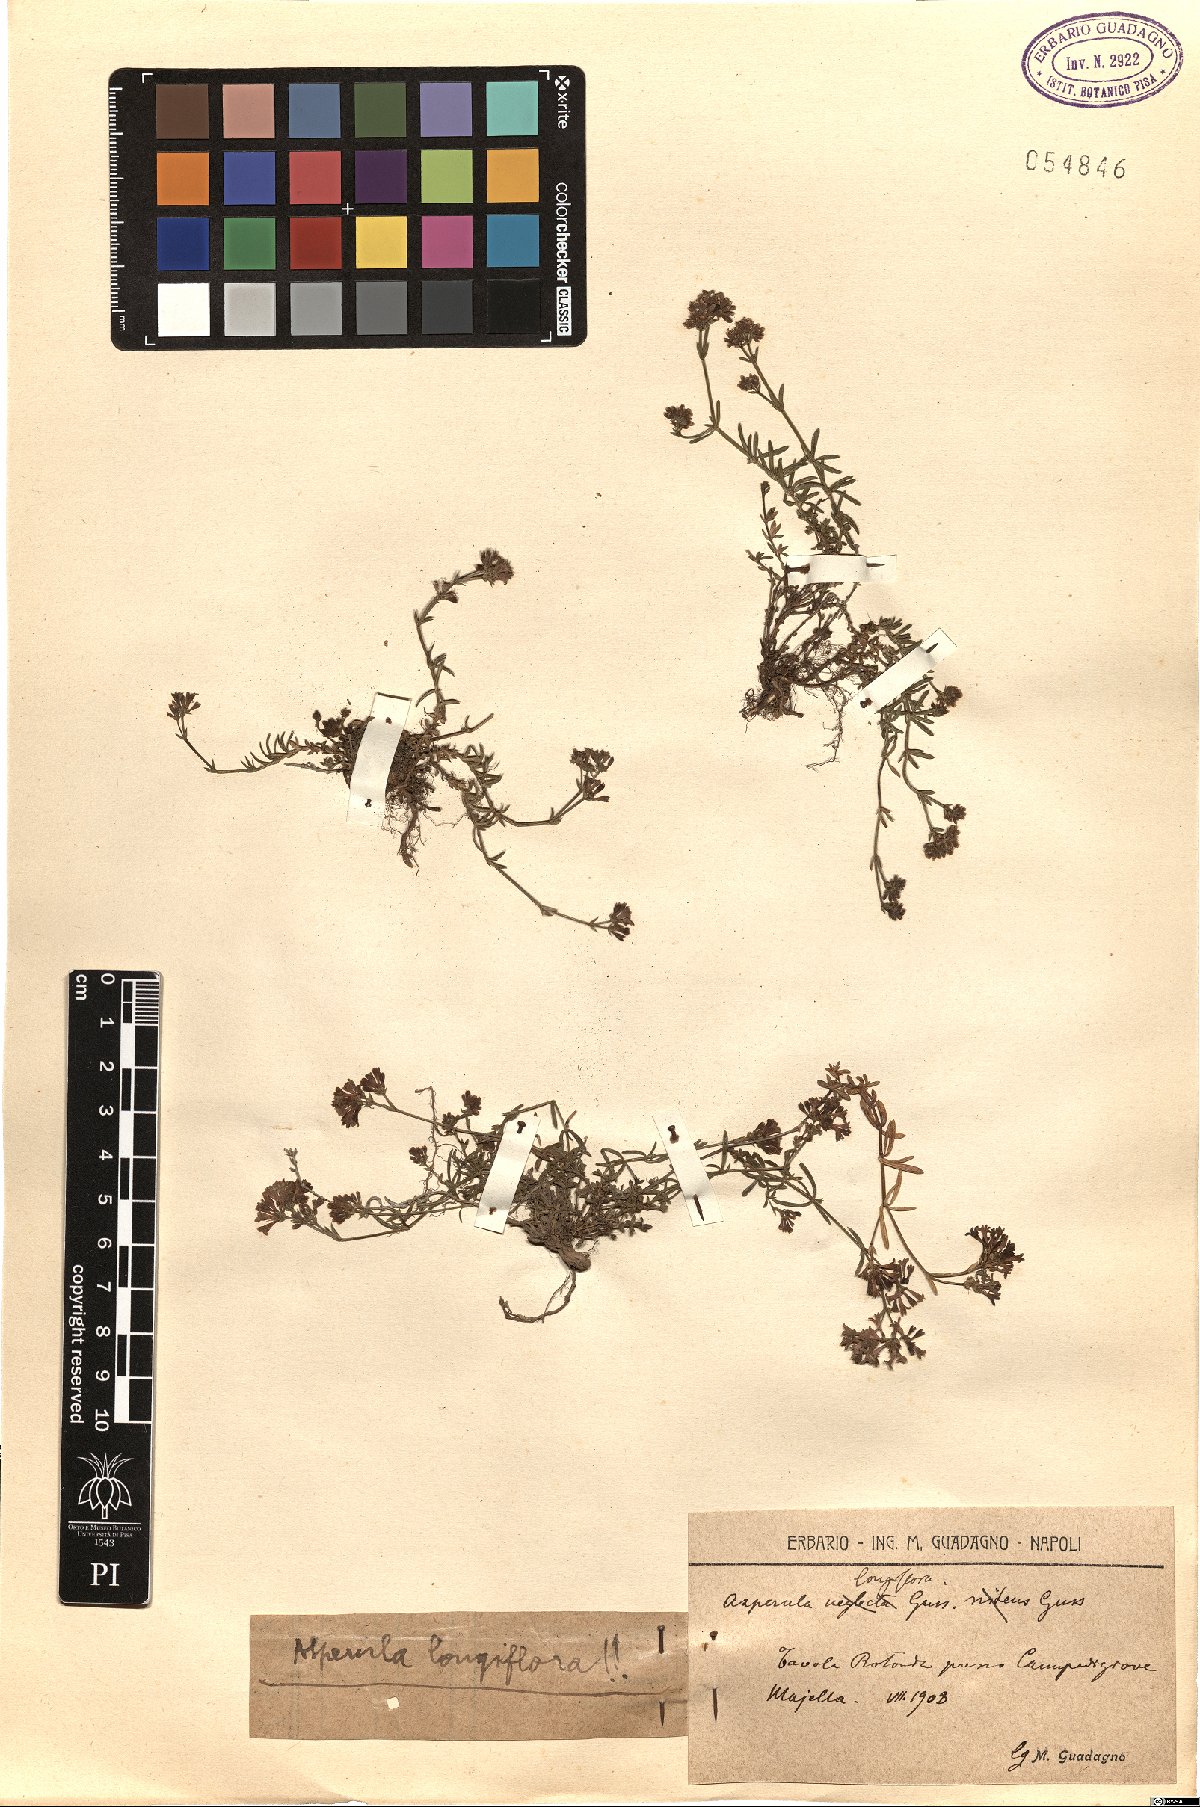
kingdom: Plantae
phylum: Tracheophyta
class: Magnoliopsida
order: Gentianales
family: Rubiaceae
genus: Cynanchica
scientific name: Cynanchica aristata
